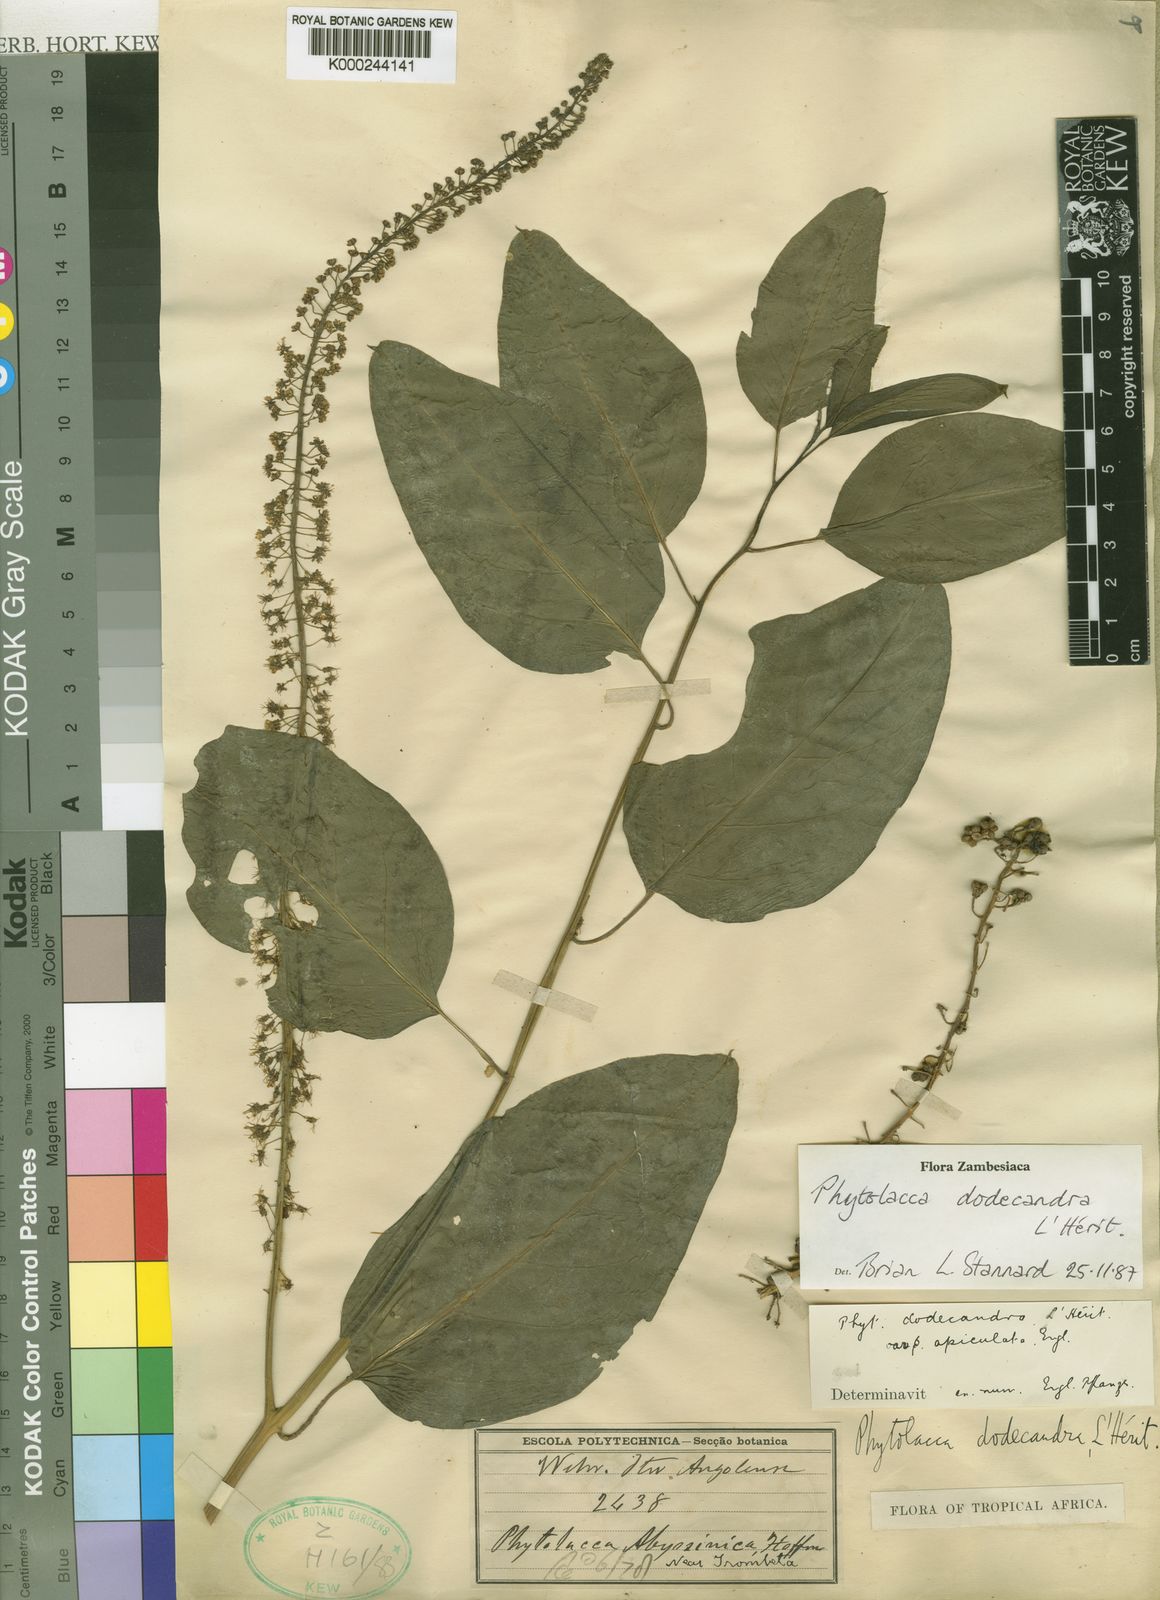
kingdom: Plantae
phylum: Tracheophyta
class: Magnoliopsida
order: Caryophyllales
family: Phytolaccaceae
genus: Phytolacca
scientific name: Phytolacca
